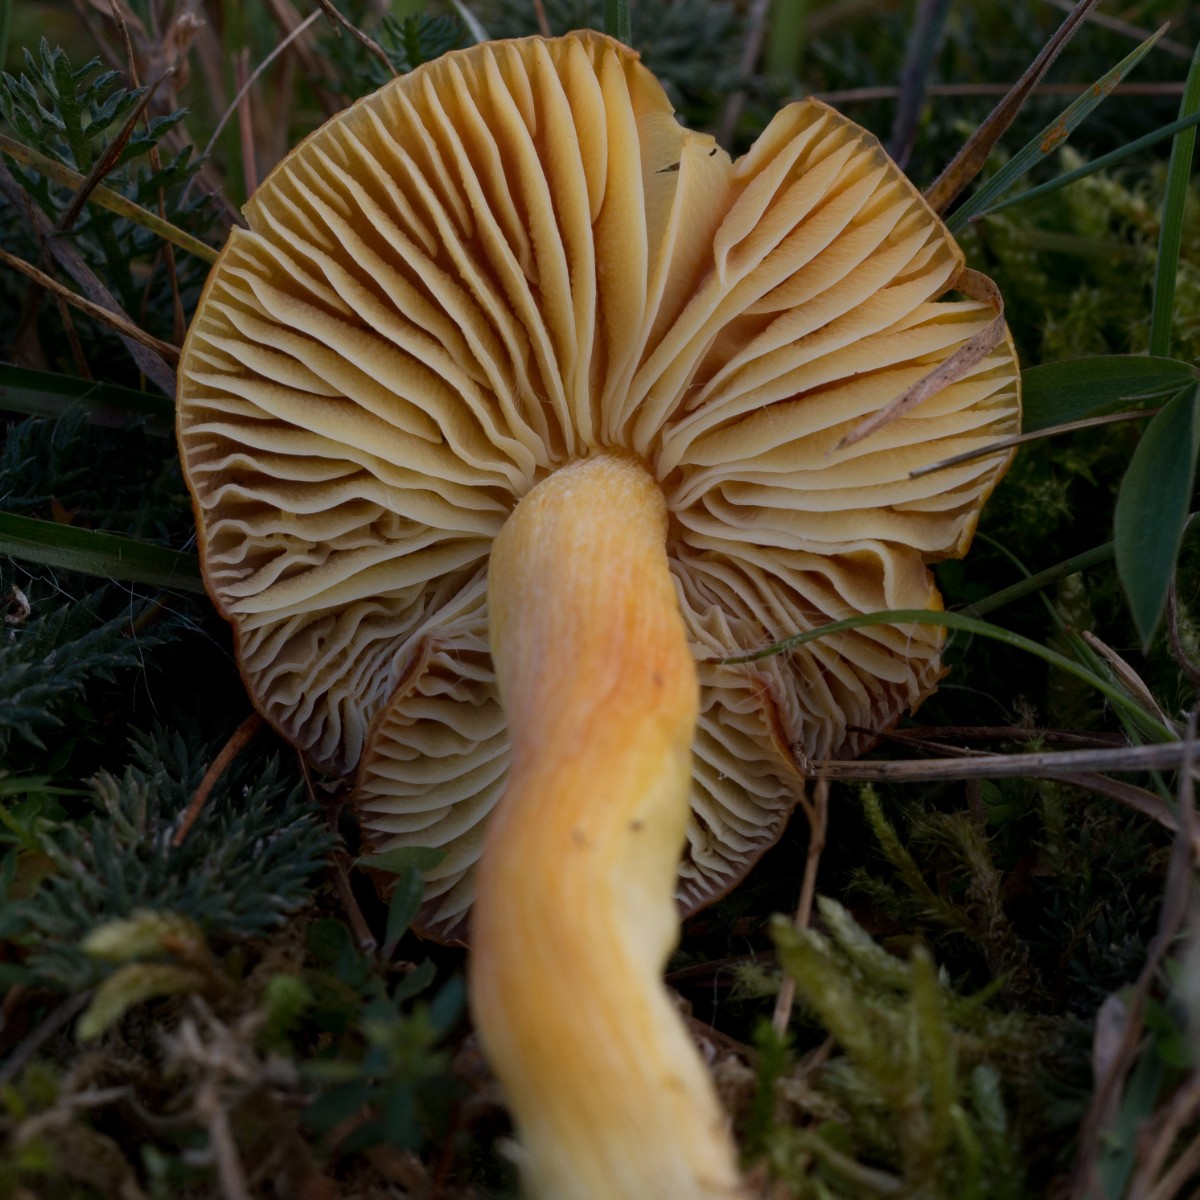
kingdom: Fungi
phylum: Basidiomycota
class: Agaricomycetes
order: Agaricales
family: Hygrophoraceae
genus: Hygrocybe
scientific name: Hygrocybe punicea
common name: skarlagen-vokshat
